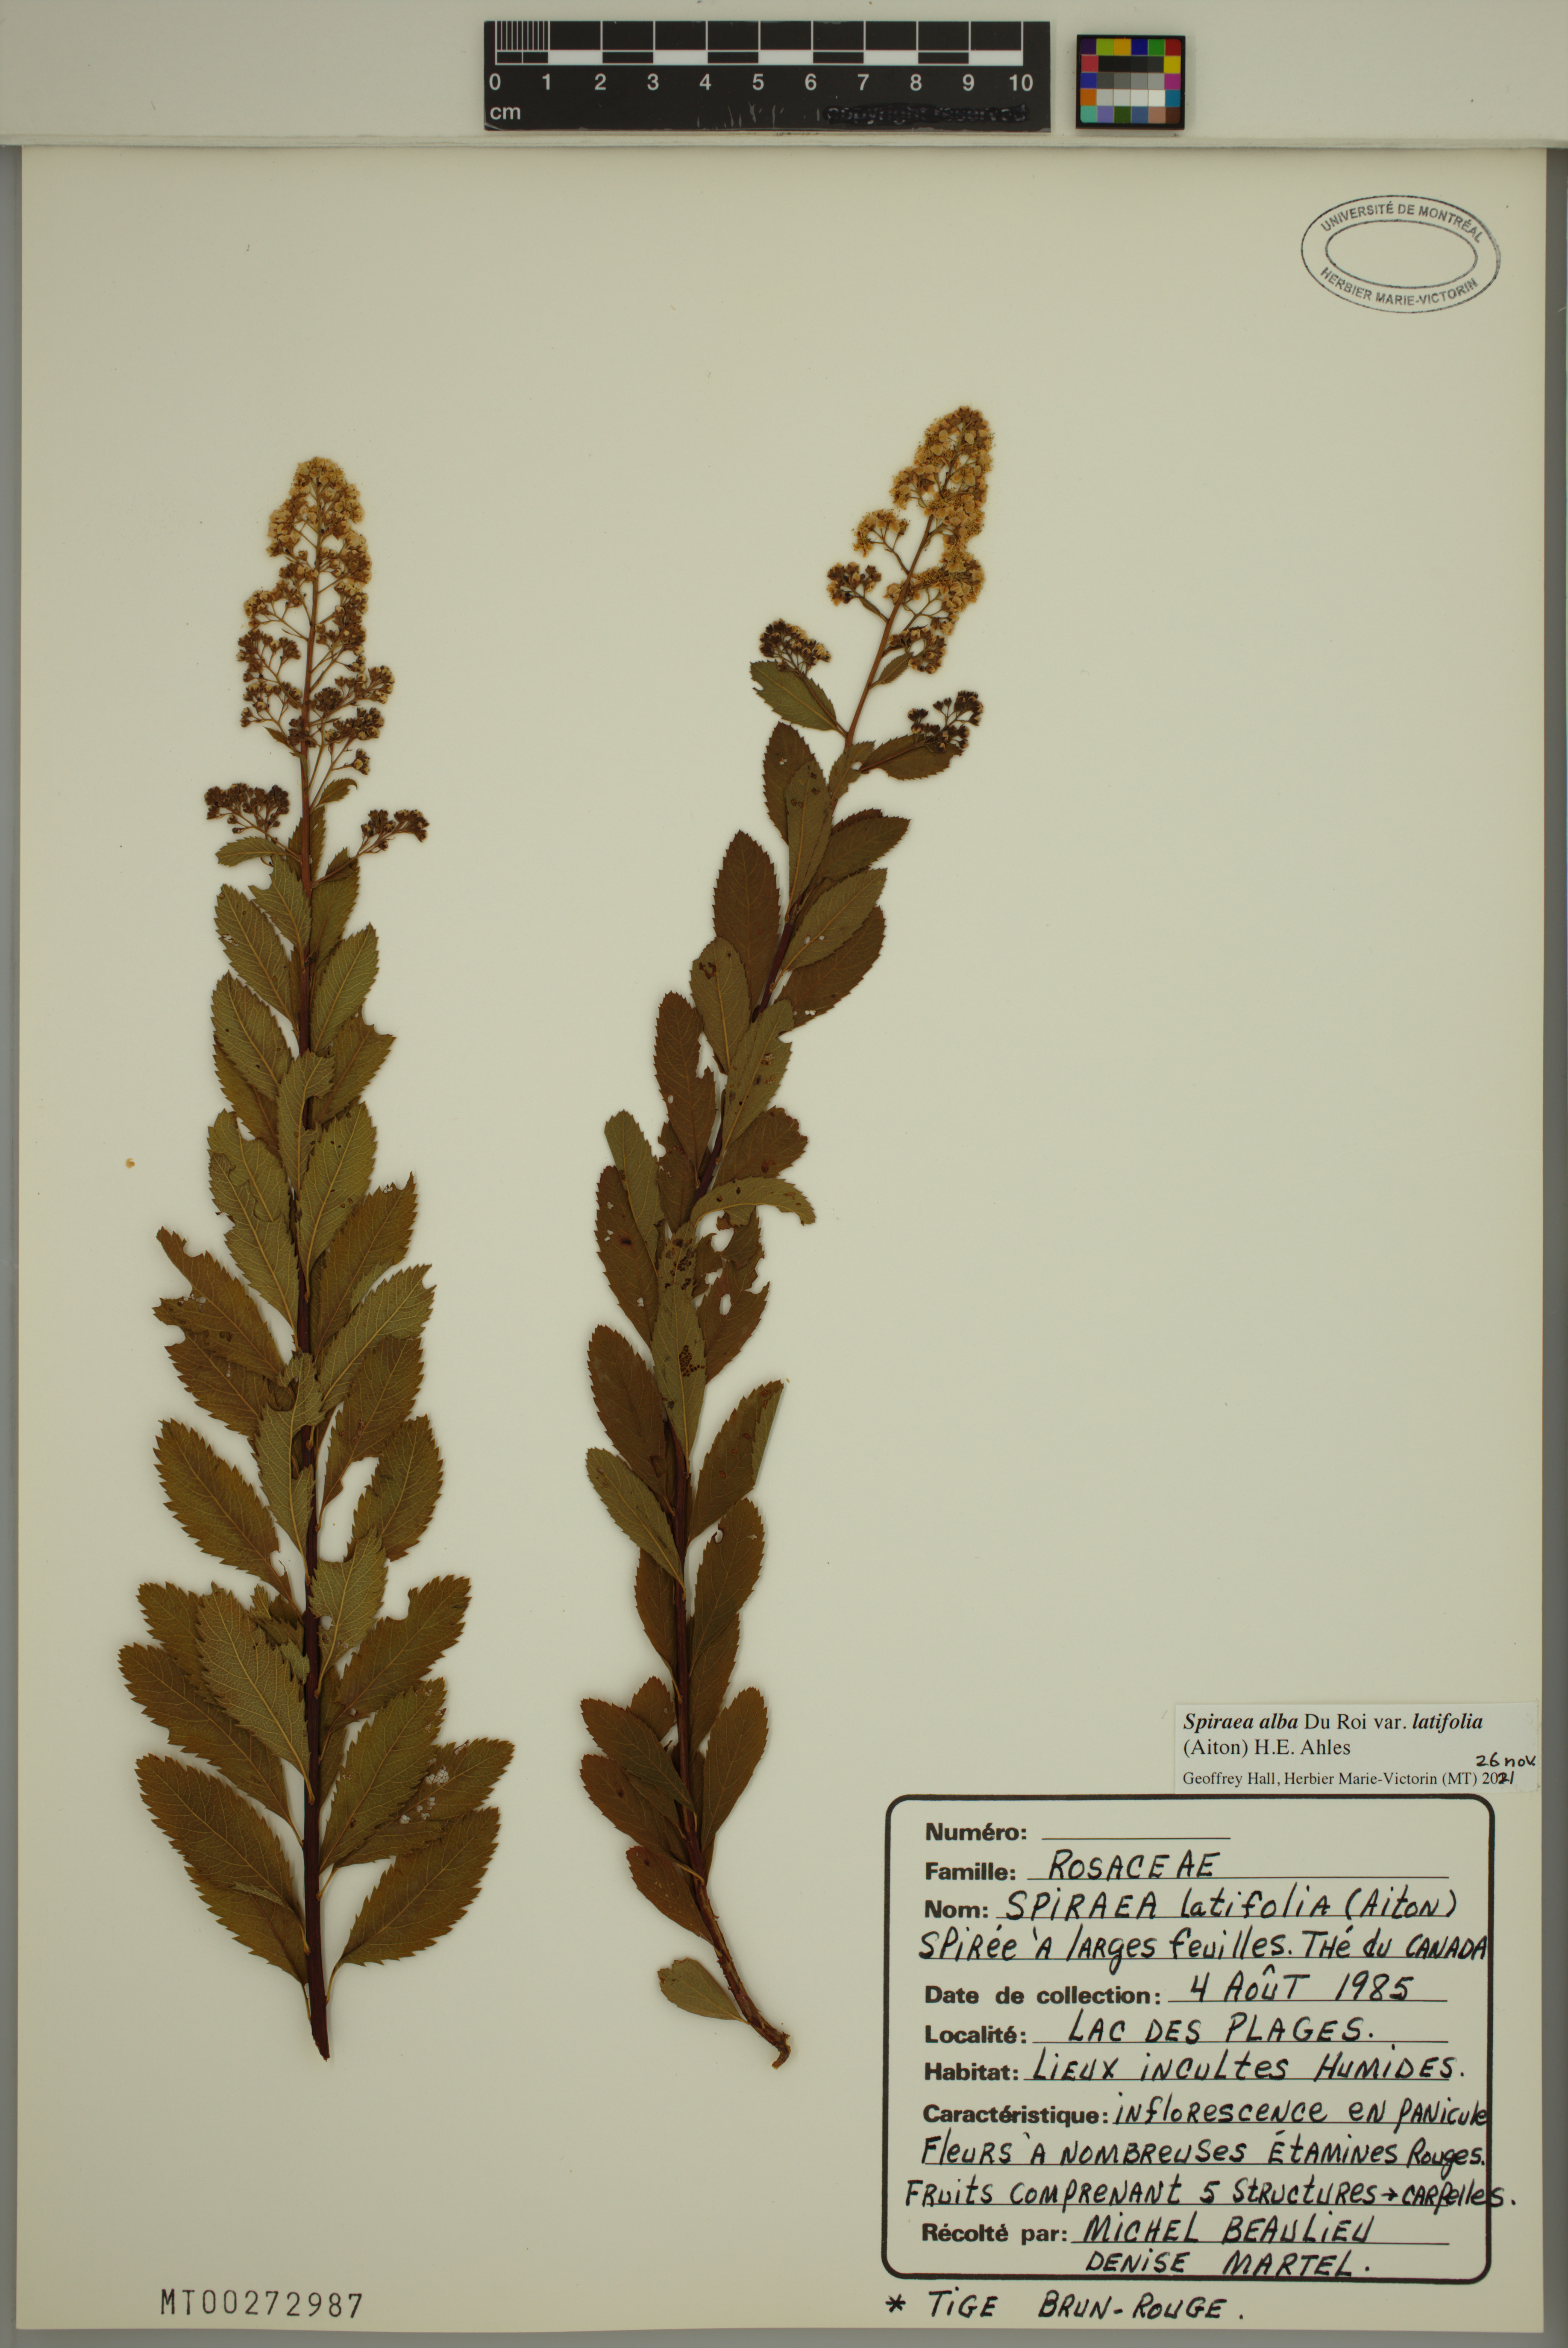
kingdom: Plantae
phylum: Tracheophyta
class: Magnoliopsida
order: Rosales
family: Rosaceae
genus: Spiraea
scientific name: Spiraea alba
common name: Pale bridewort
